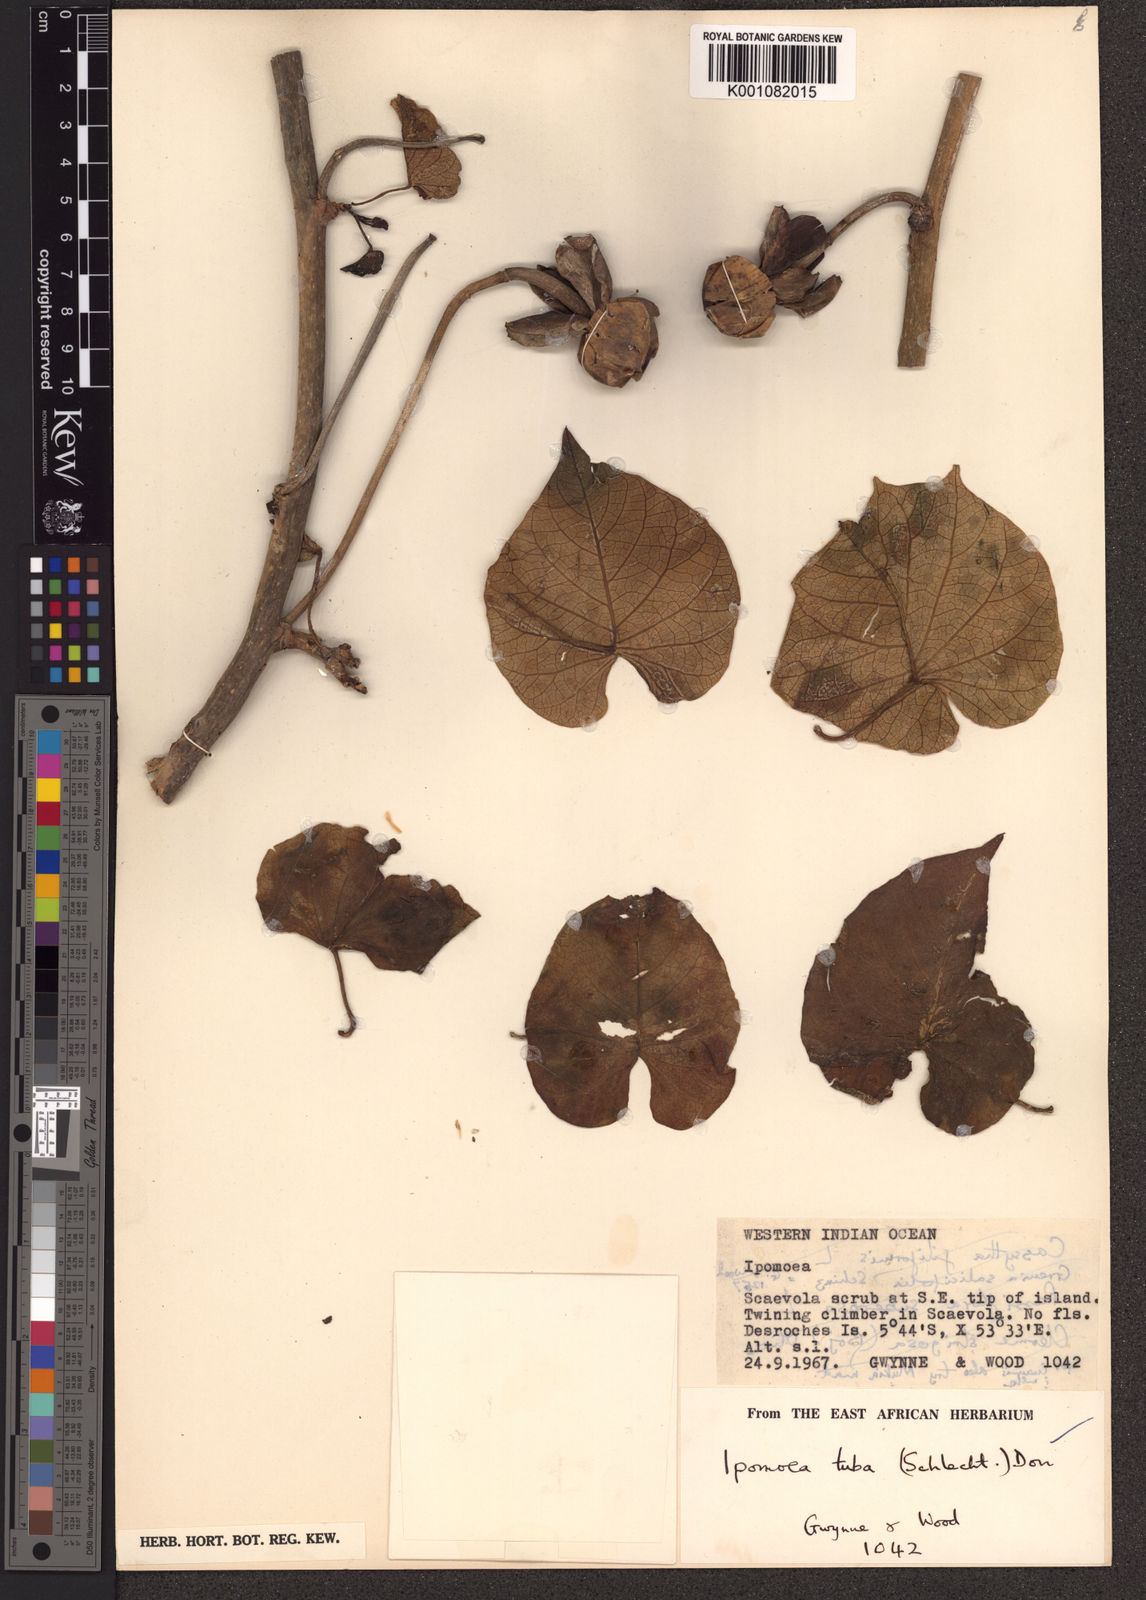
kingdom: Plantae
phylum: Tracheophyta
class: Magnoliopsida
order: Solanales
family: Convolvulaceae
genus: Ipomoea
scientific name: Ipomoea violacea
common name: Beach moonflower
